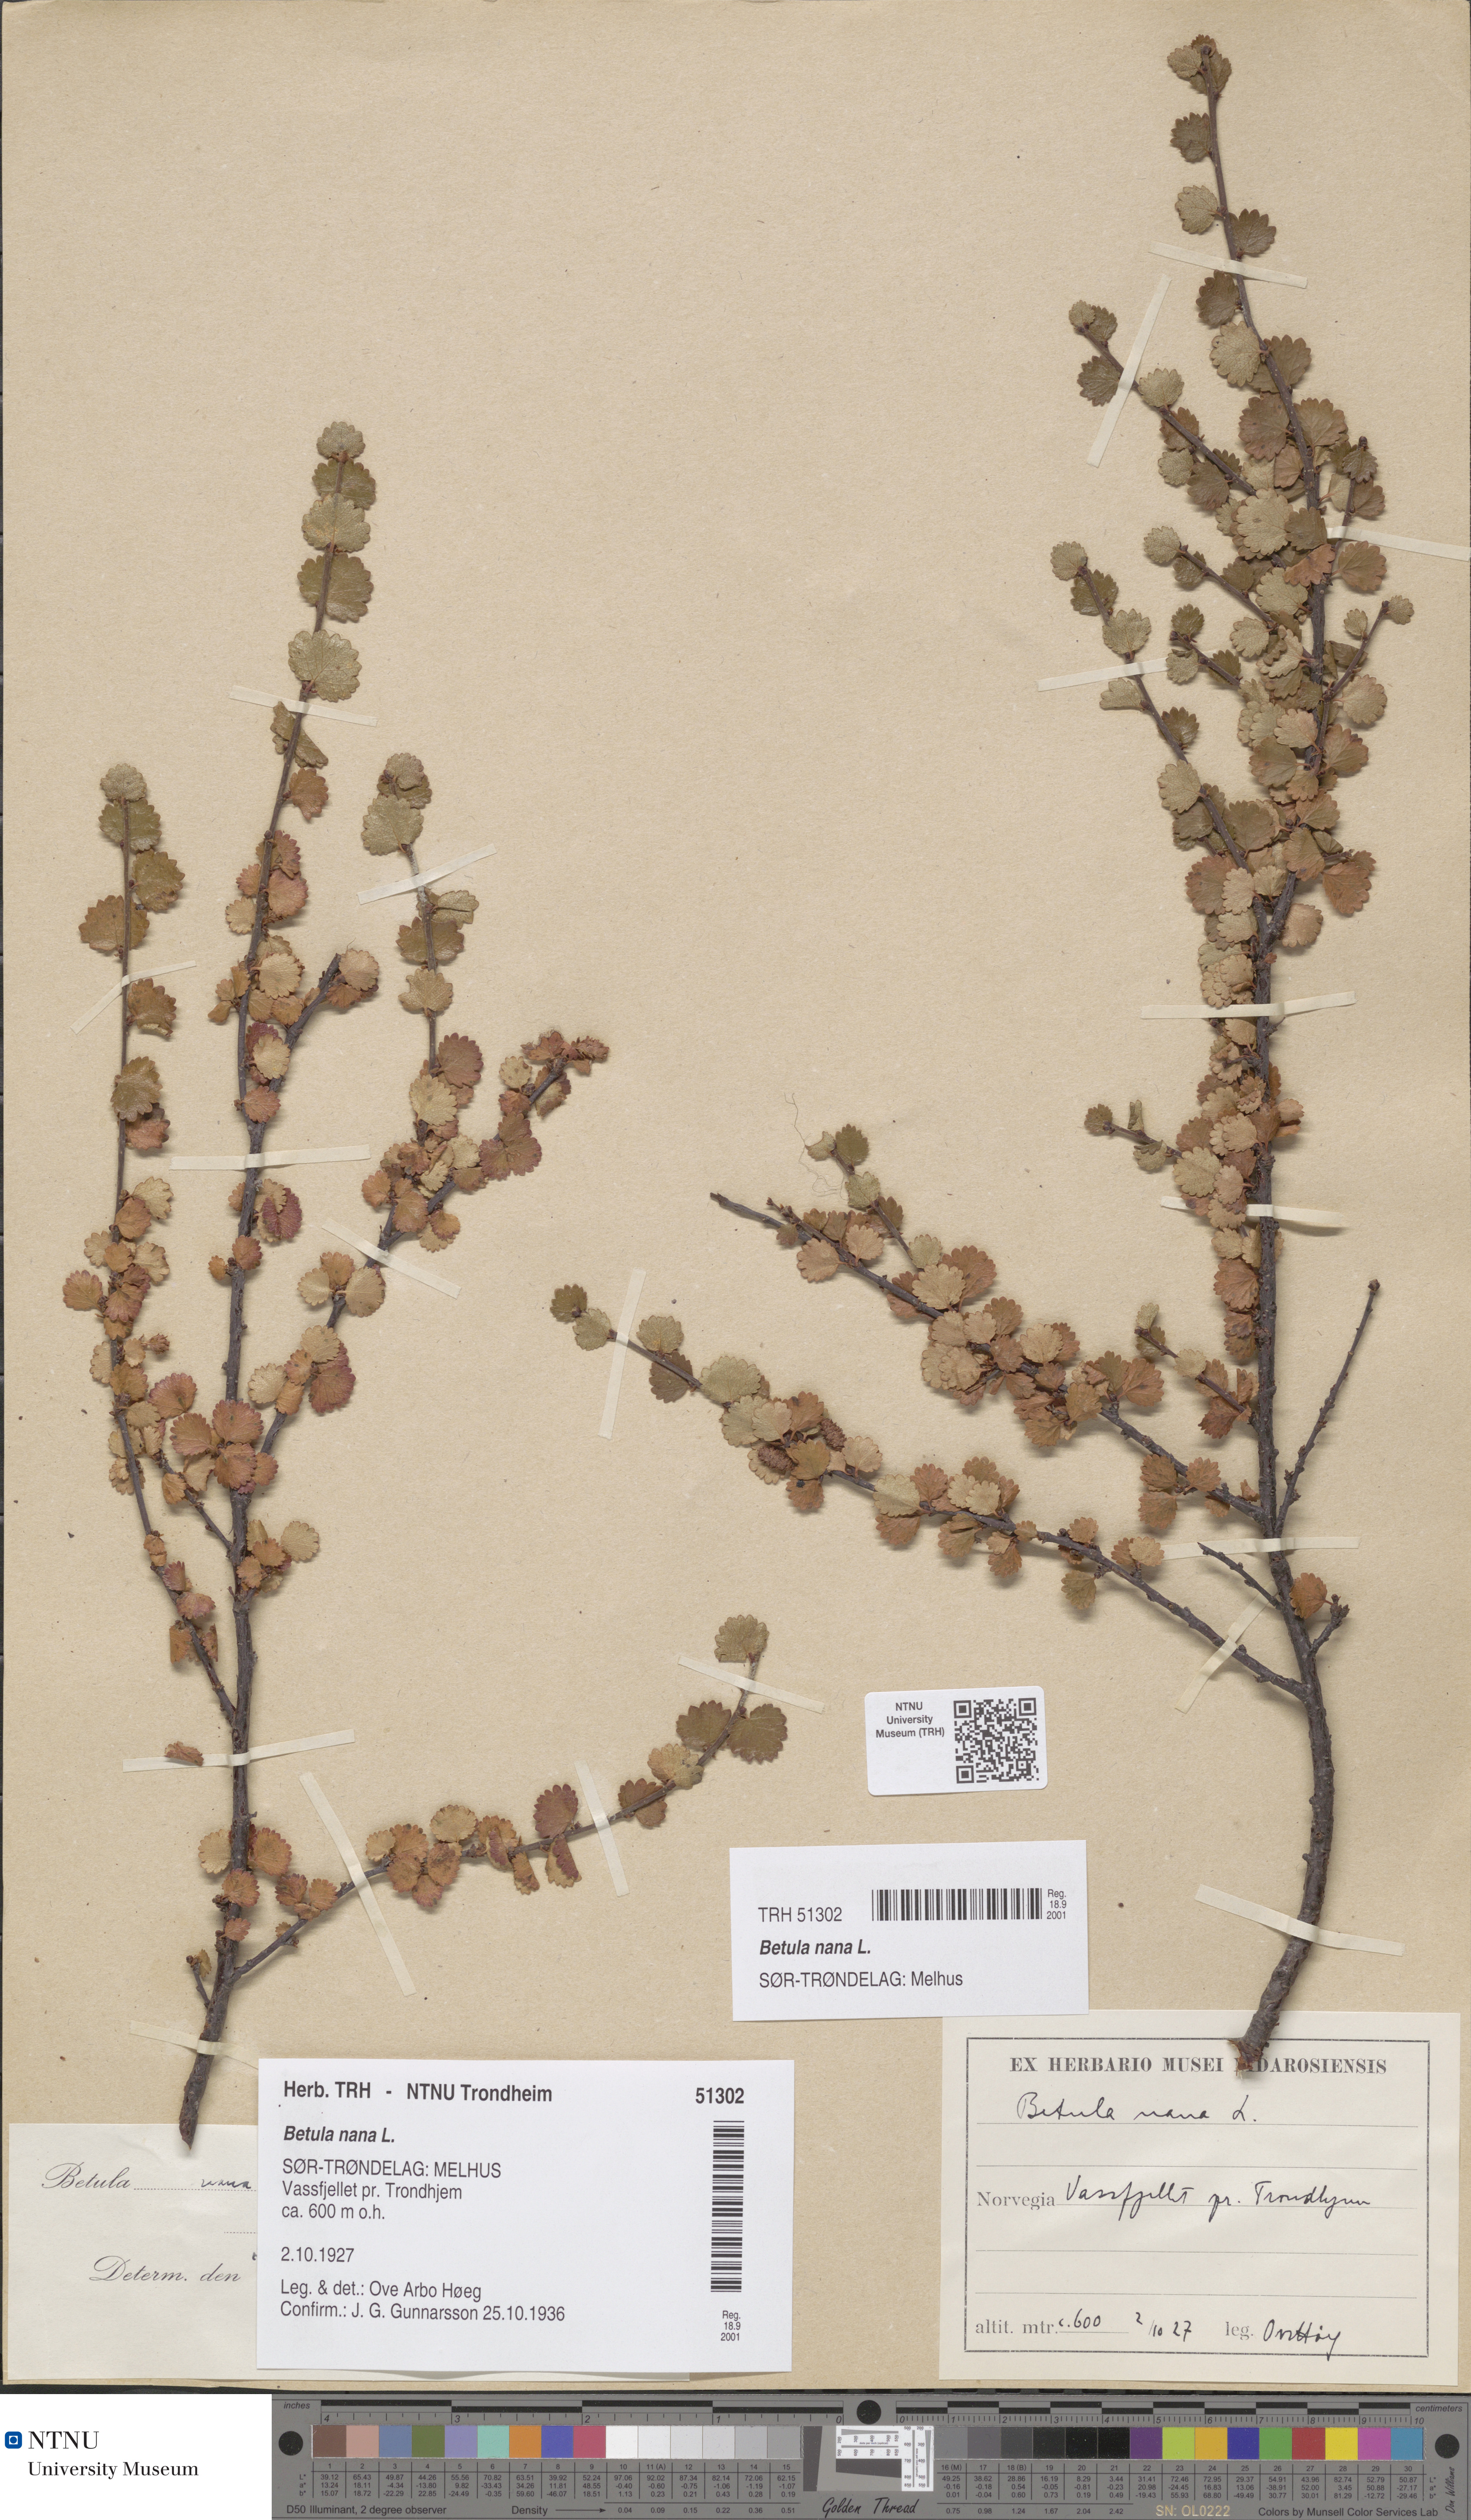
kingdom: Plantae
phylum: Tracheophyta
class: Magnoliopsida
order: Fagales
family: Betulaceae
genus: Betula
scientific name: Betula nana
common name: Arctic dwarf birch
